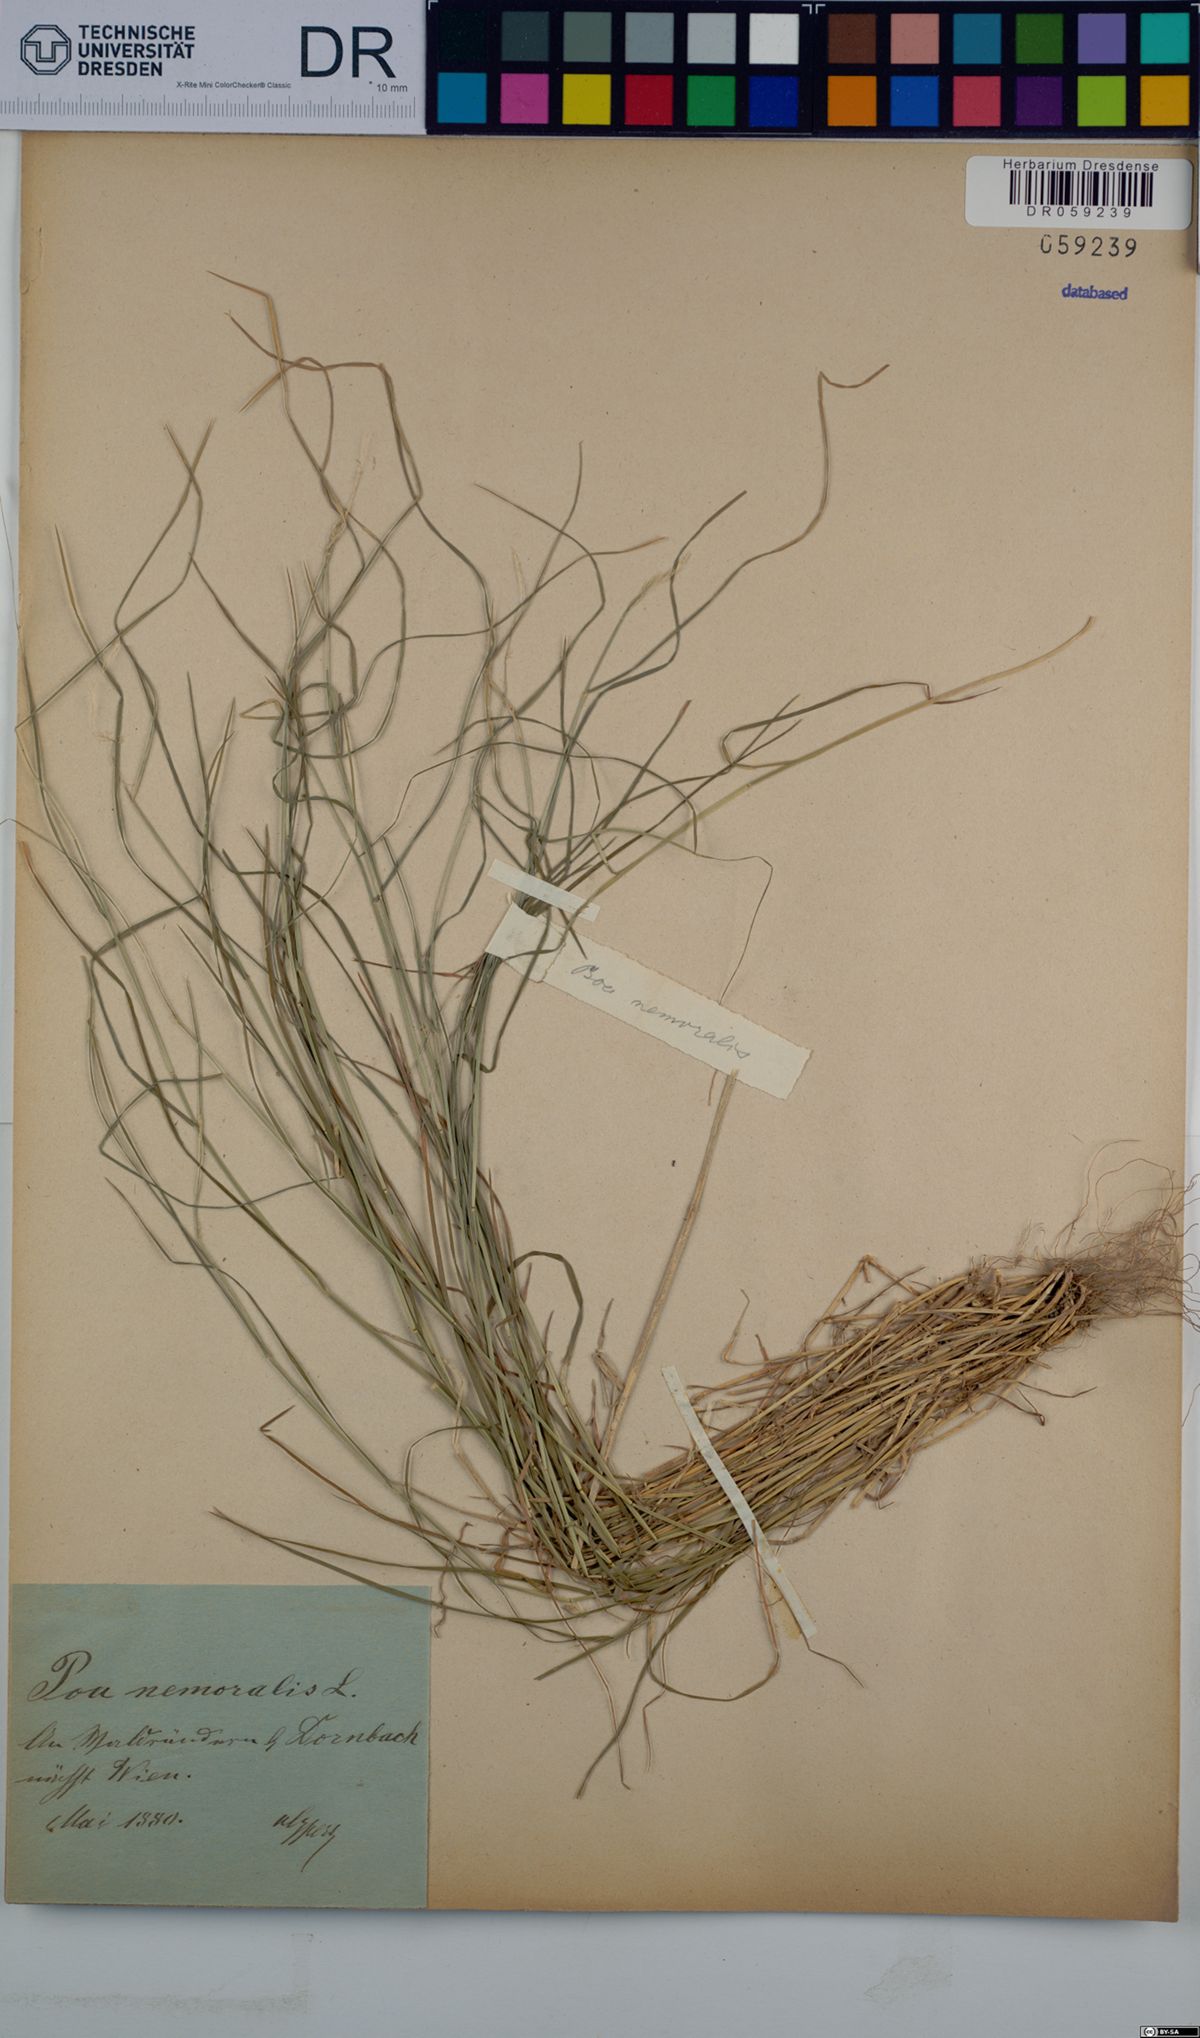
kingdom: Plantae
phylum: Tracheophyta
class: Liliopsida
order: Poales
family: Poaceae
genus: Poa
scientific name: Poa nemoralis
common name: Wood bluegrass
